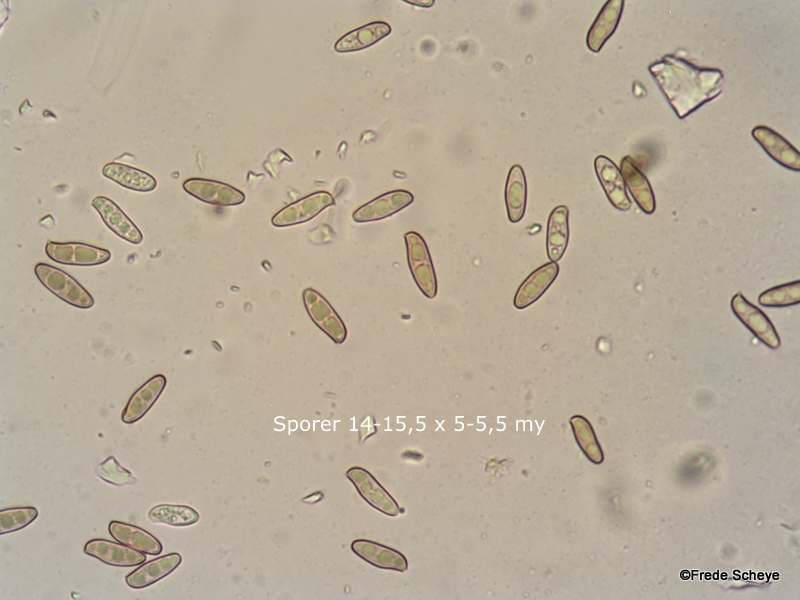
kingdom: Fungi
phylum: Basidiomycota
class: Agaricomycetes
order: Boletales
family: Boletaceae
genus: Xerocomellus
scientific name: Xerocomellus chrysenteron
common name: rødsprukken rørhat
